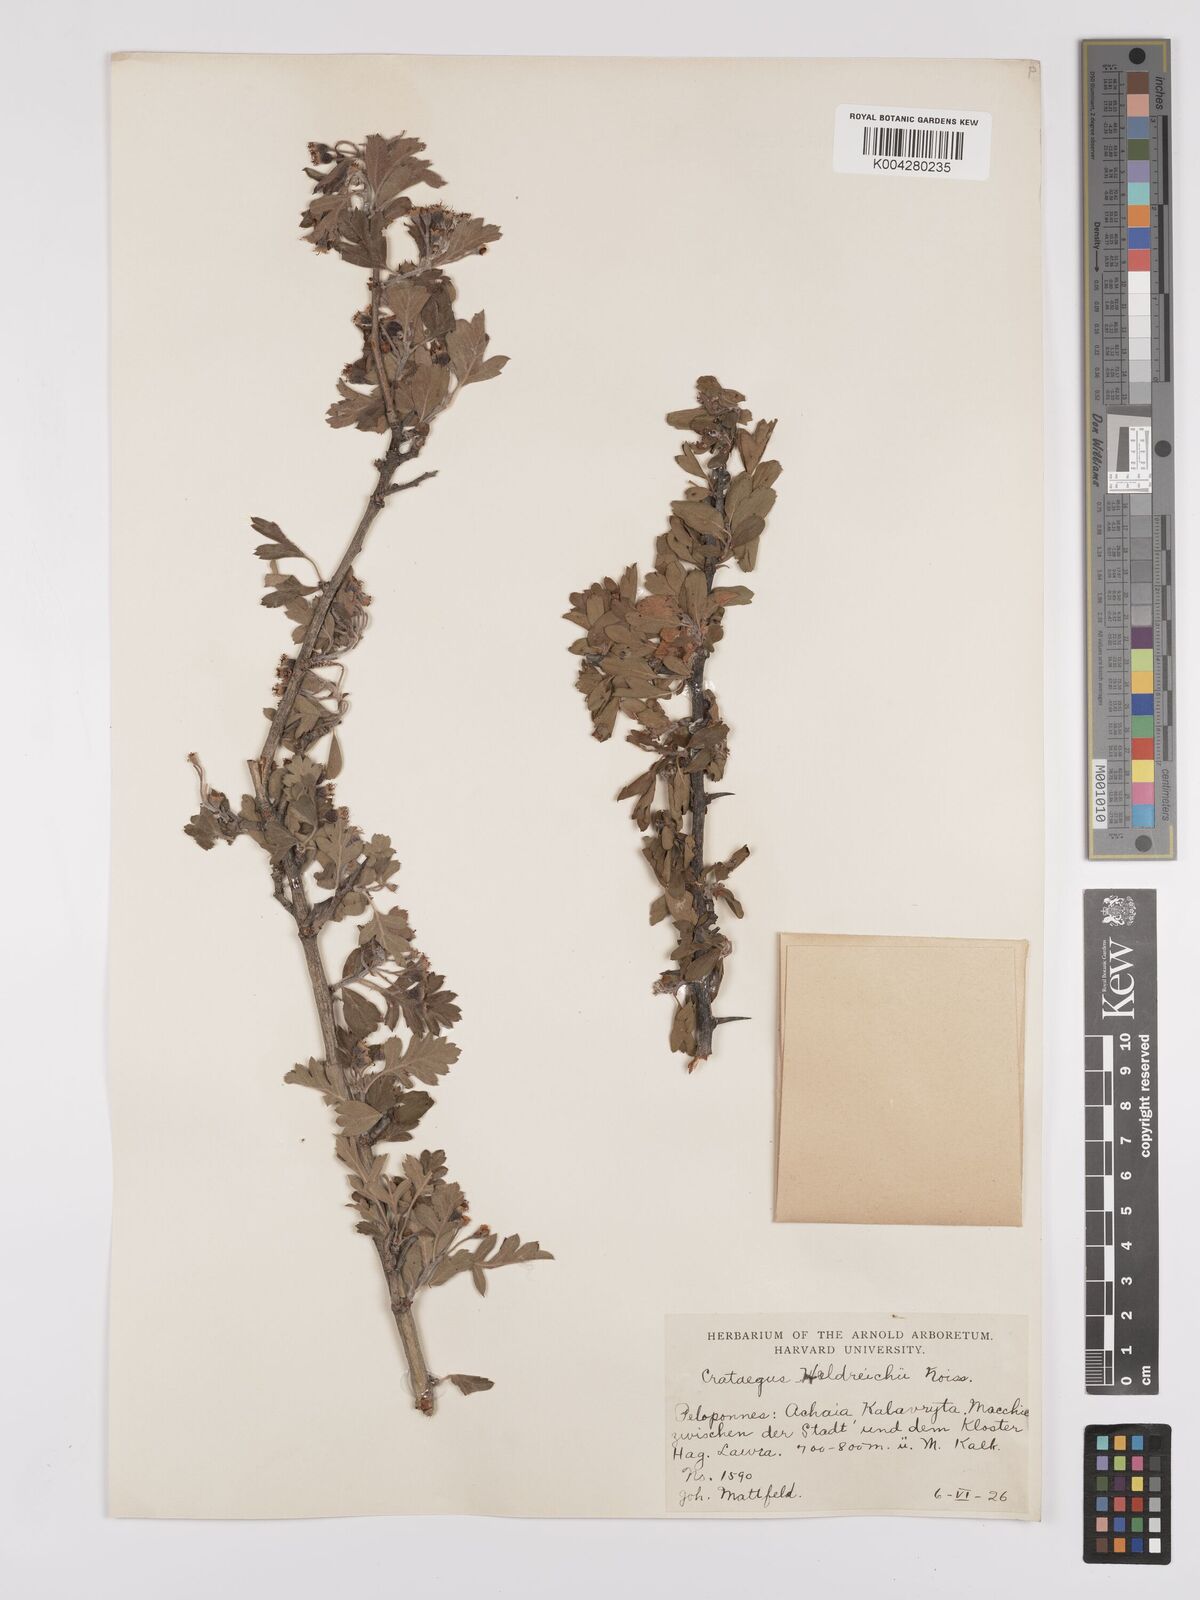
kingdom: Plantae
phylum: Tracheophyta
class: Magnoliopsida
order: Rosales
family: Rosaceae
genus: Crataegus
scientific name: Crataegus heldreichii
